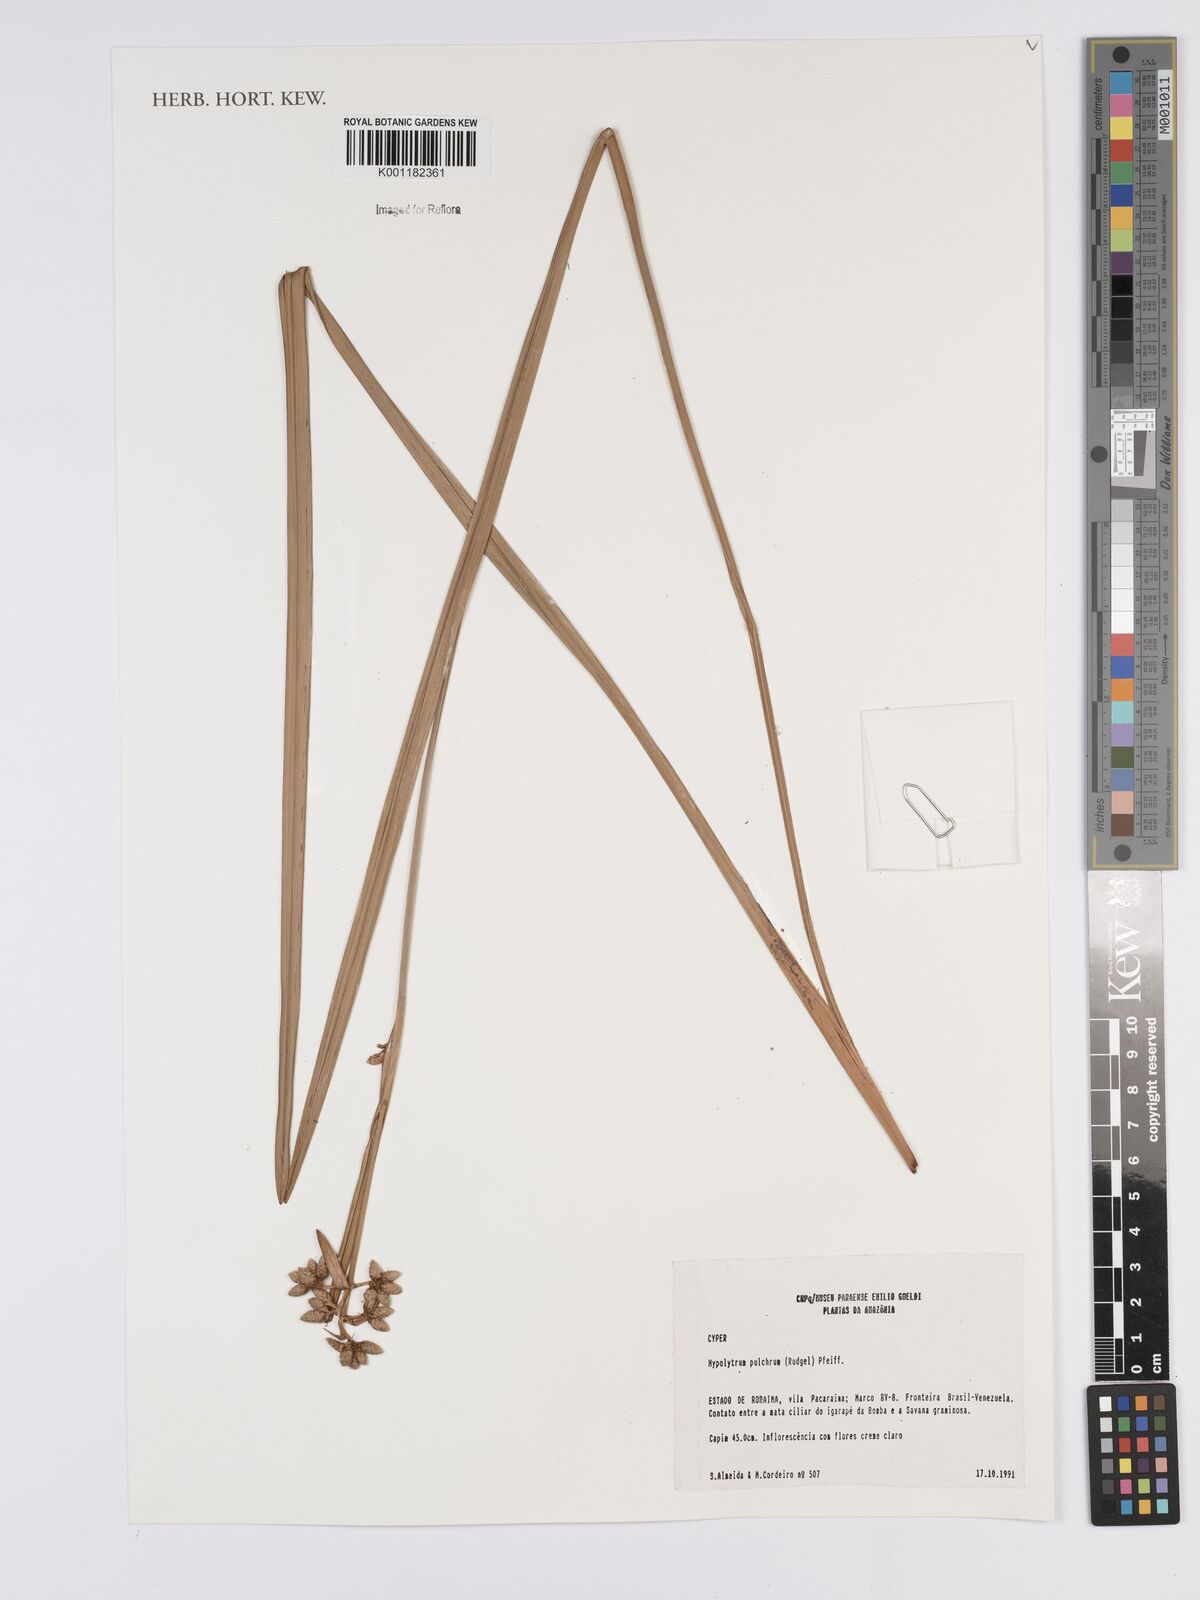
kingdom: Plantae
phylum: Tracheophyta
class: Liliopsida
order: Poales
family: Cyperaceae
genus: Hypolytrum
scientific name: Hypolytrum pulchrum
